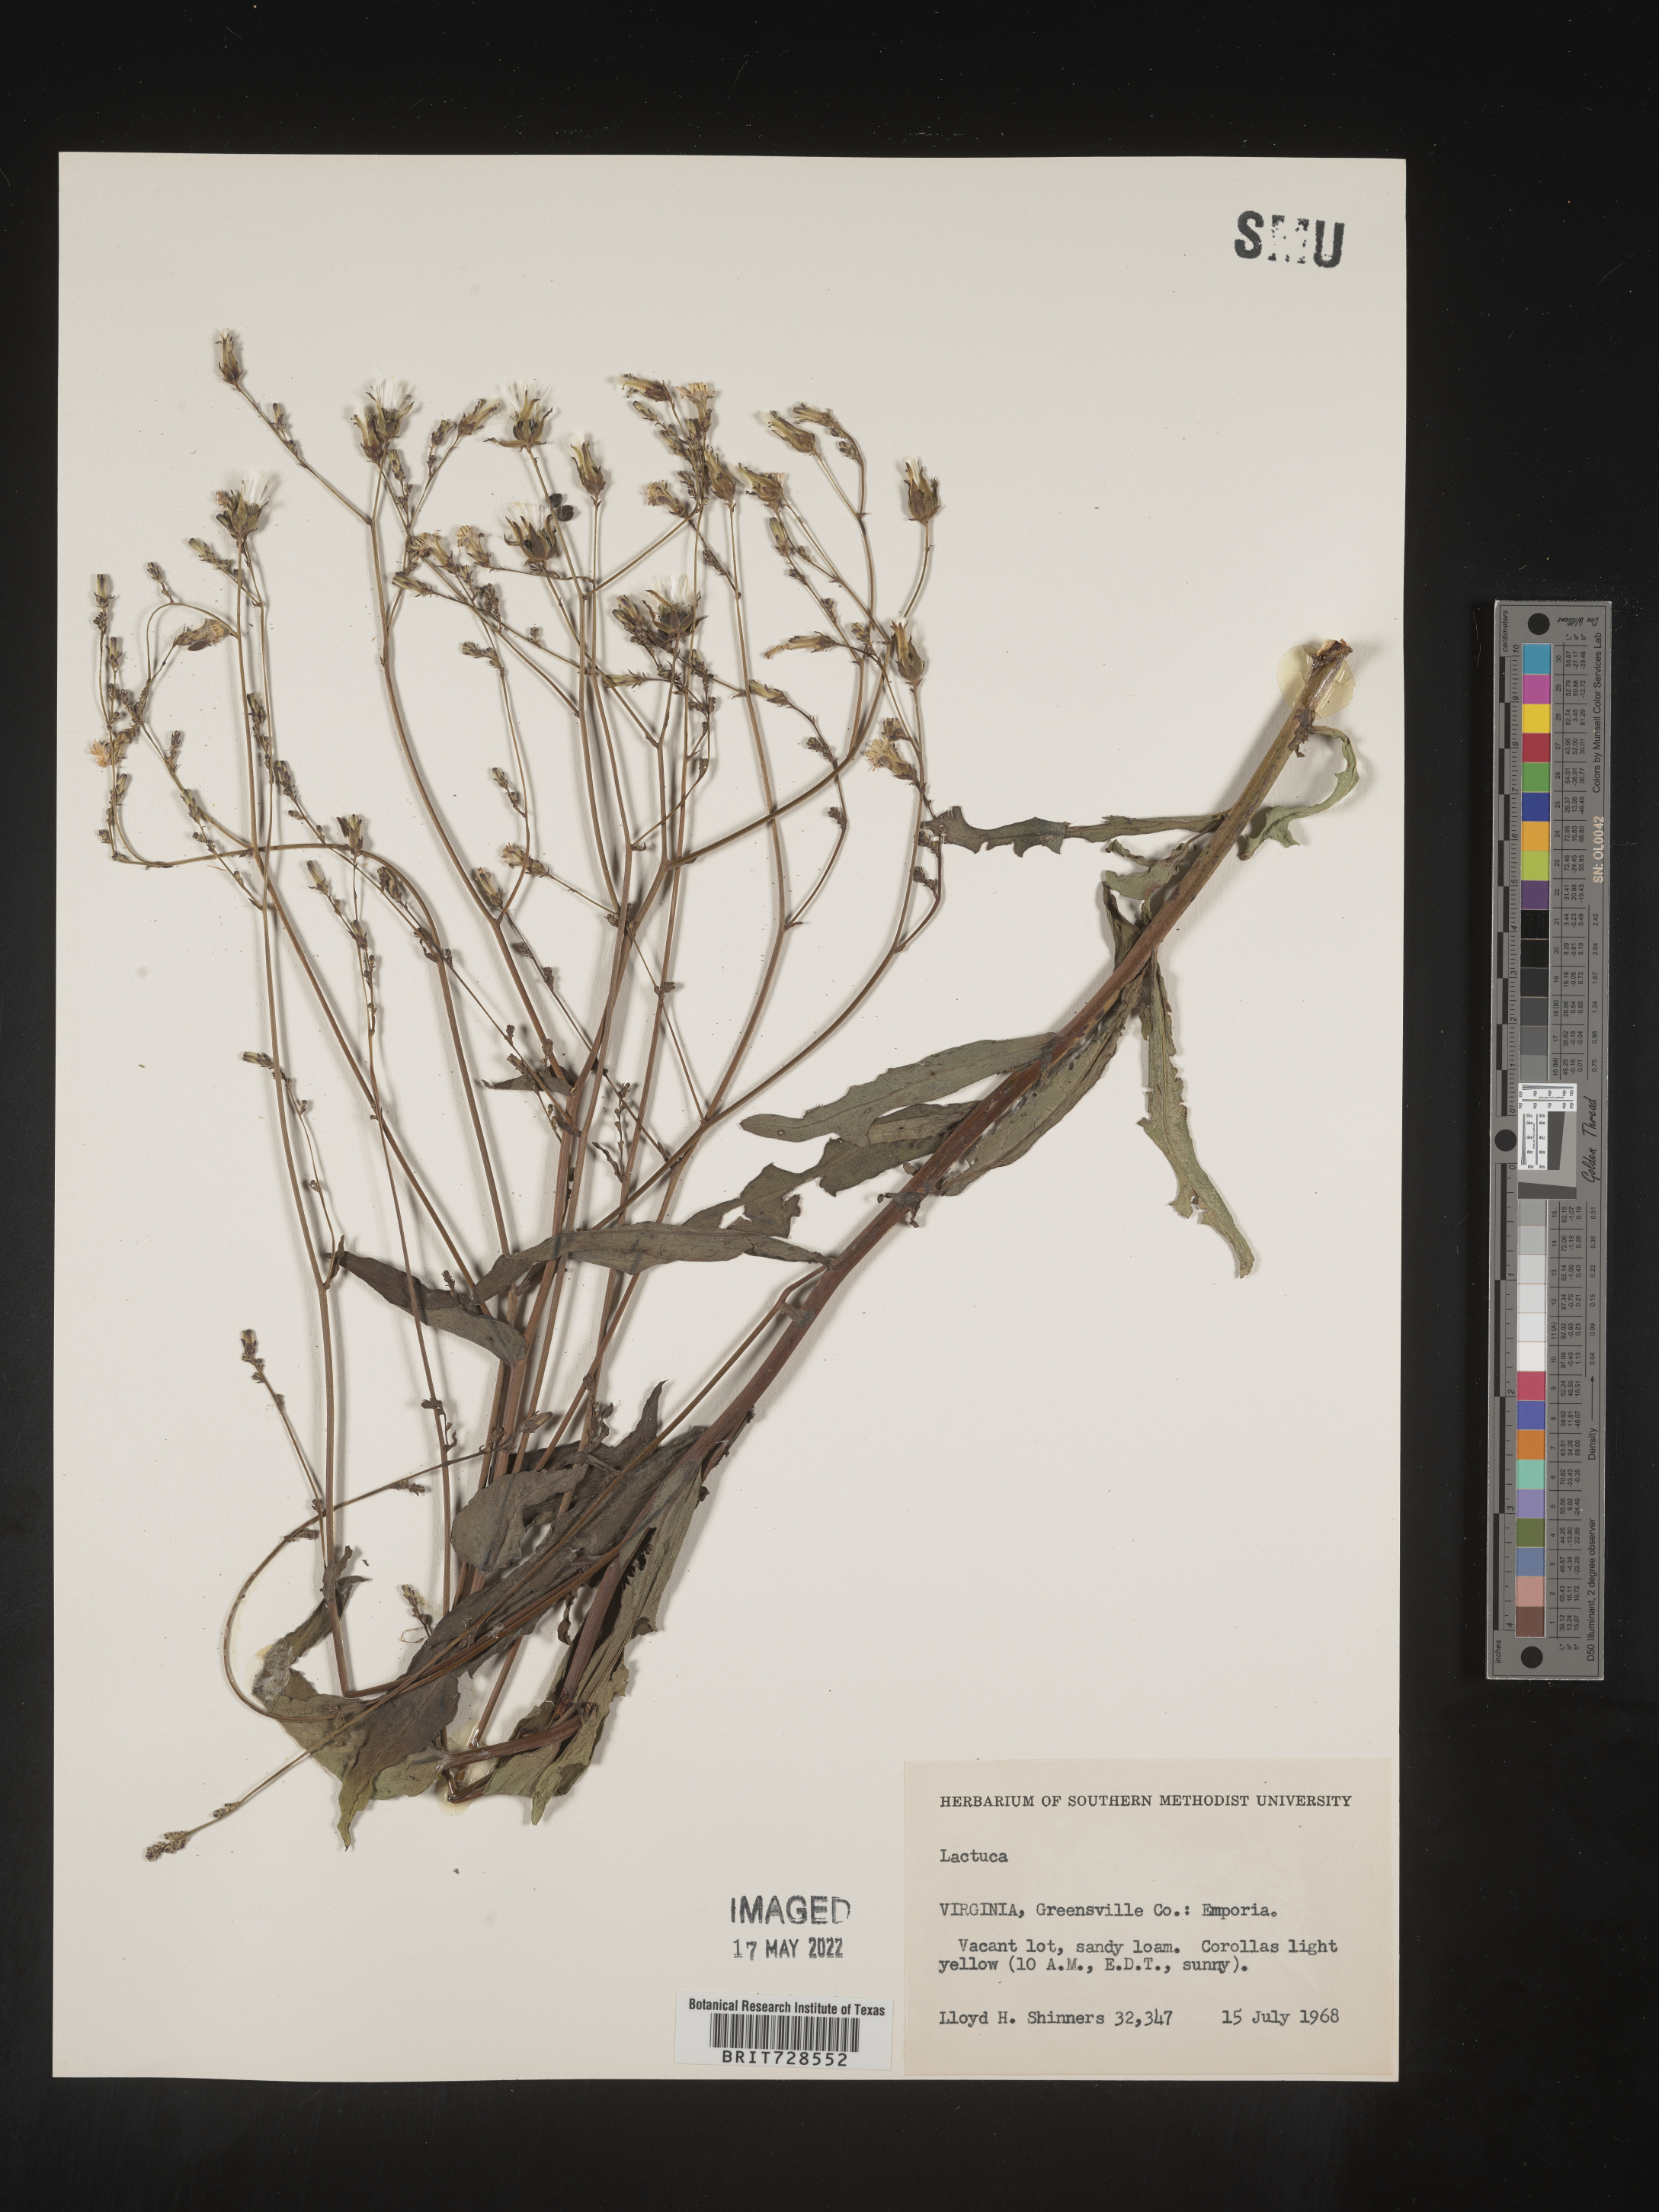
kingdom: Plantae
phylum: Tracheophyta
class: Magnoliopsida
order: Asterales
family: Asteraceae
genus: Lactuca
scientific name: Lactuca
